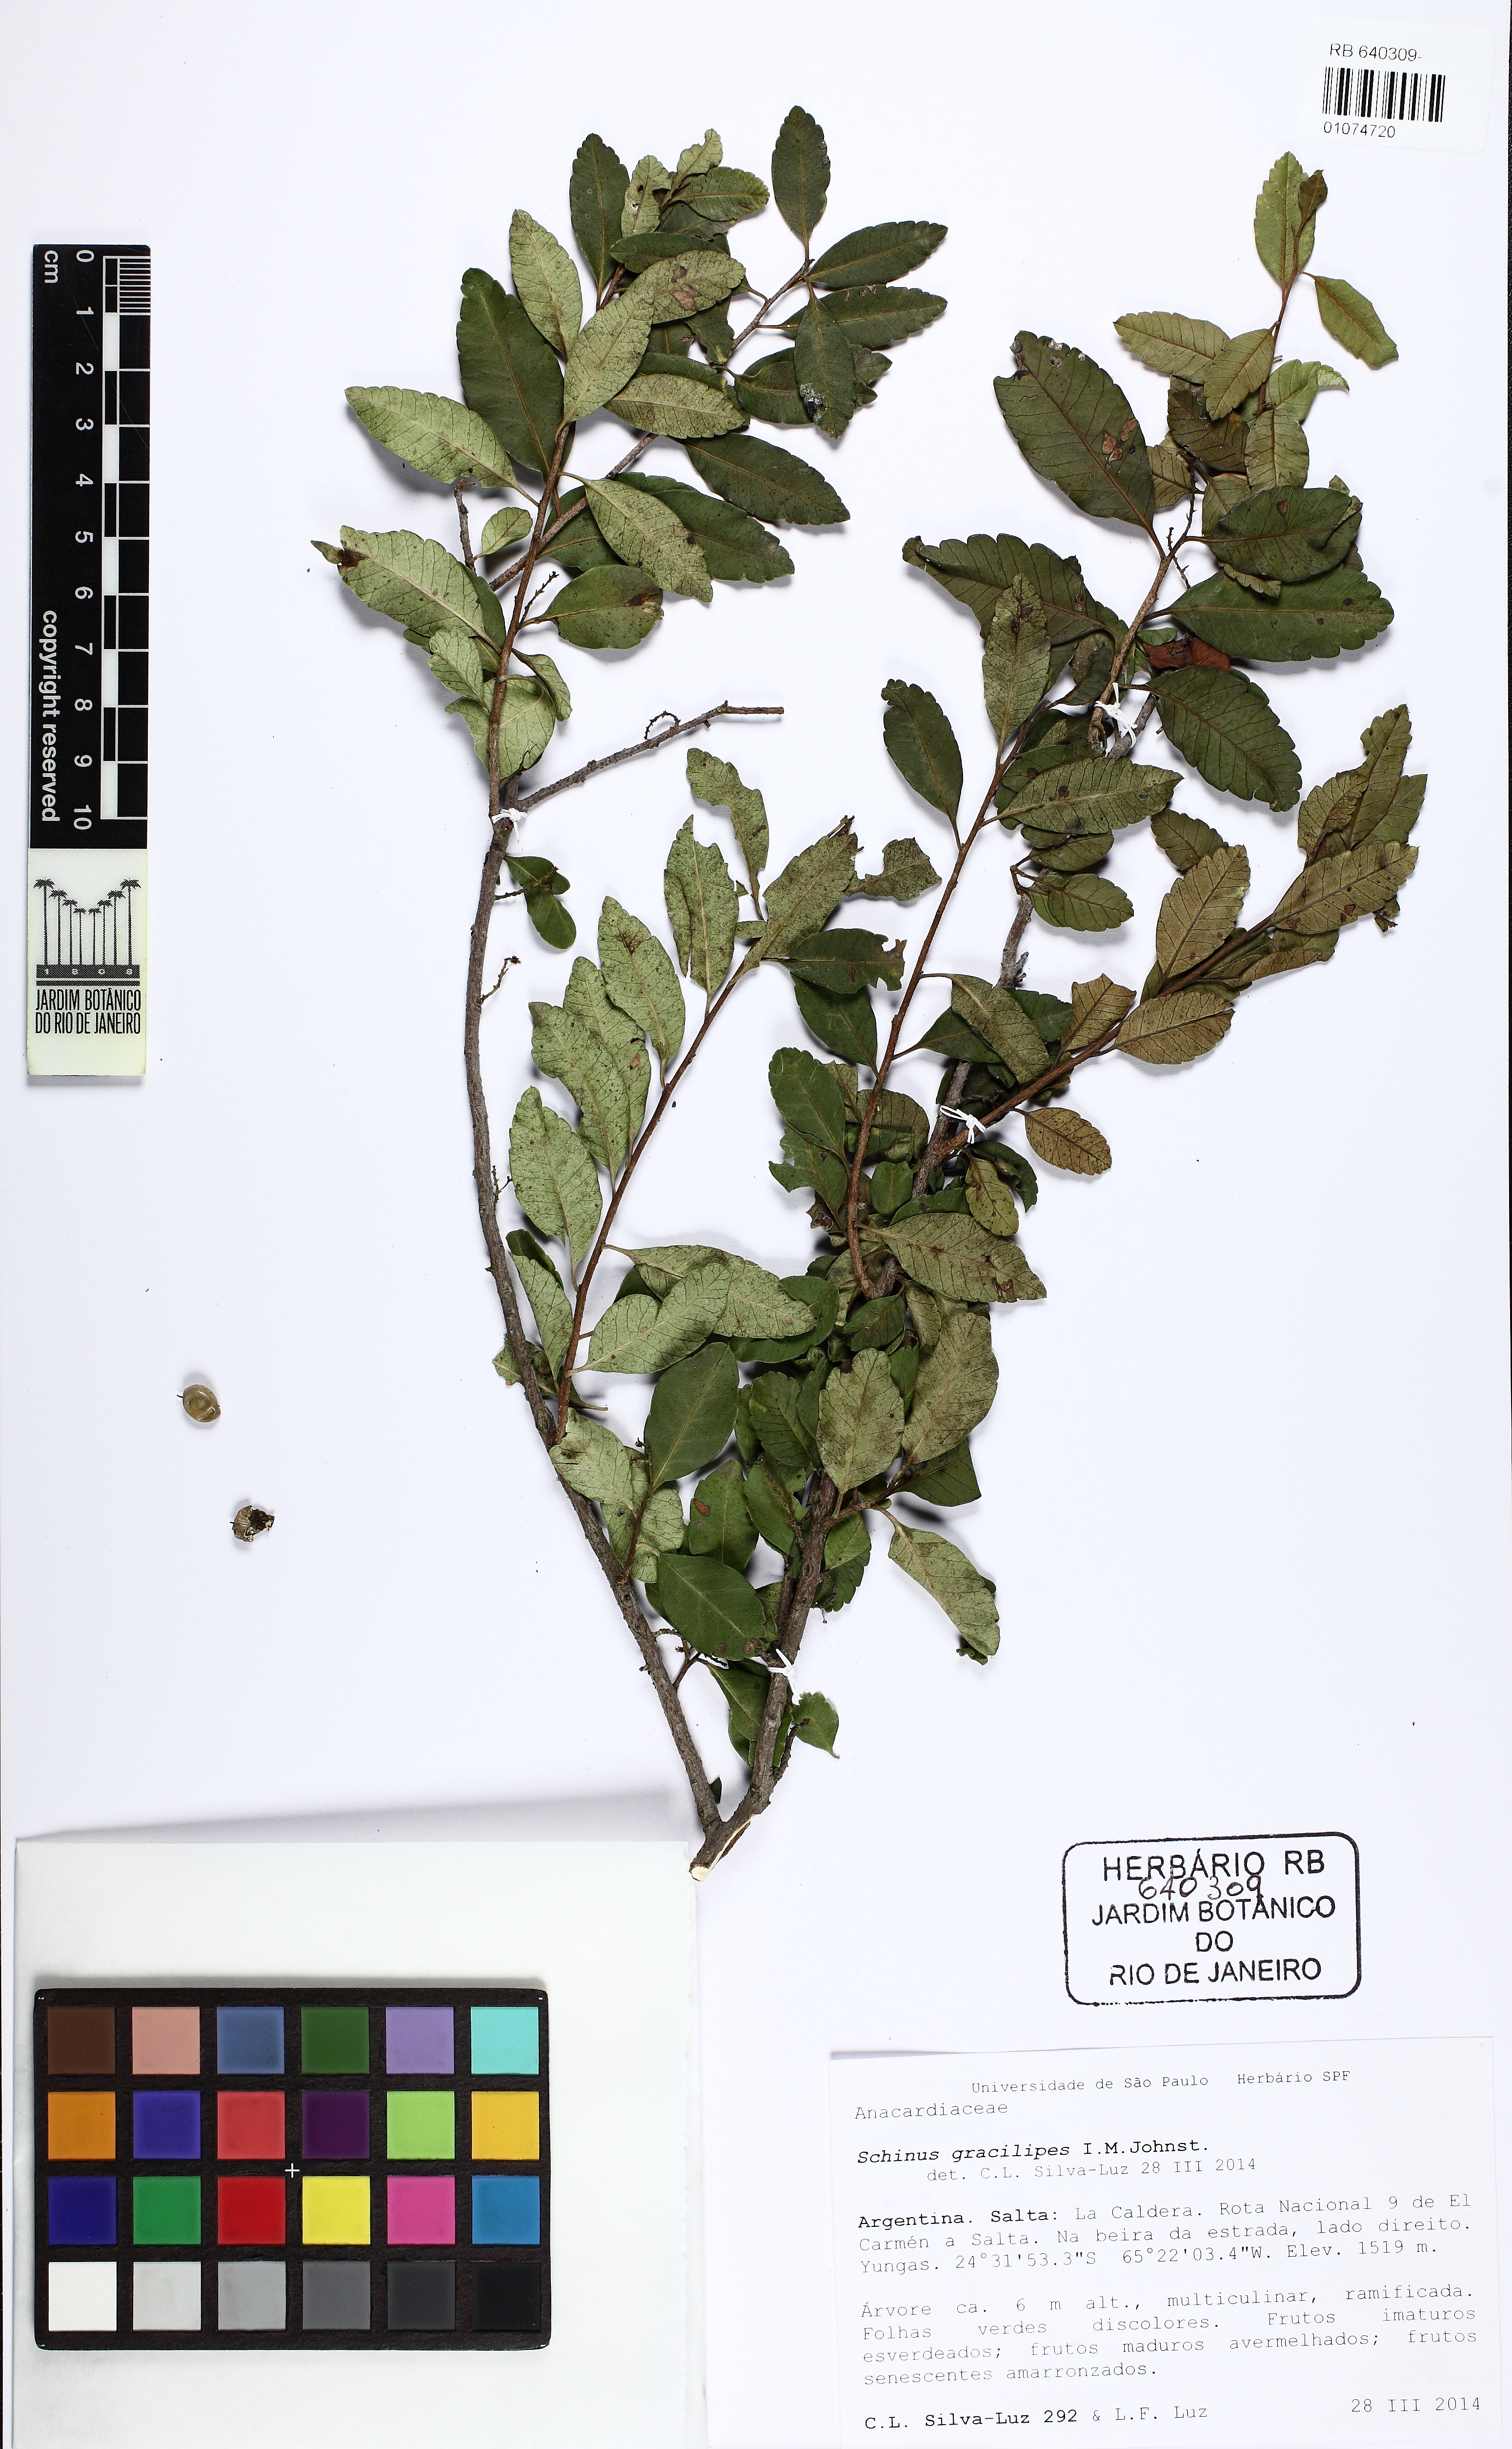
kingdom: Plantae
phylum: Tracheophyta
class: Magnoliopsida
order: Sapindales
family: Anacardiaceae
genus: Schinus
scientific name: Schinus gracilipes
